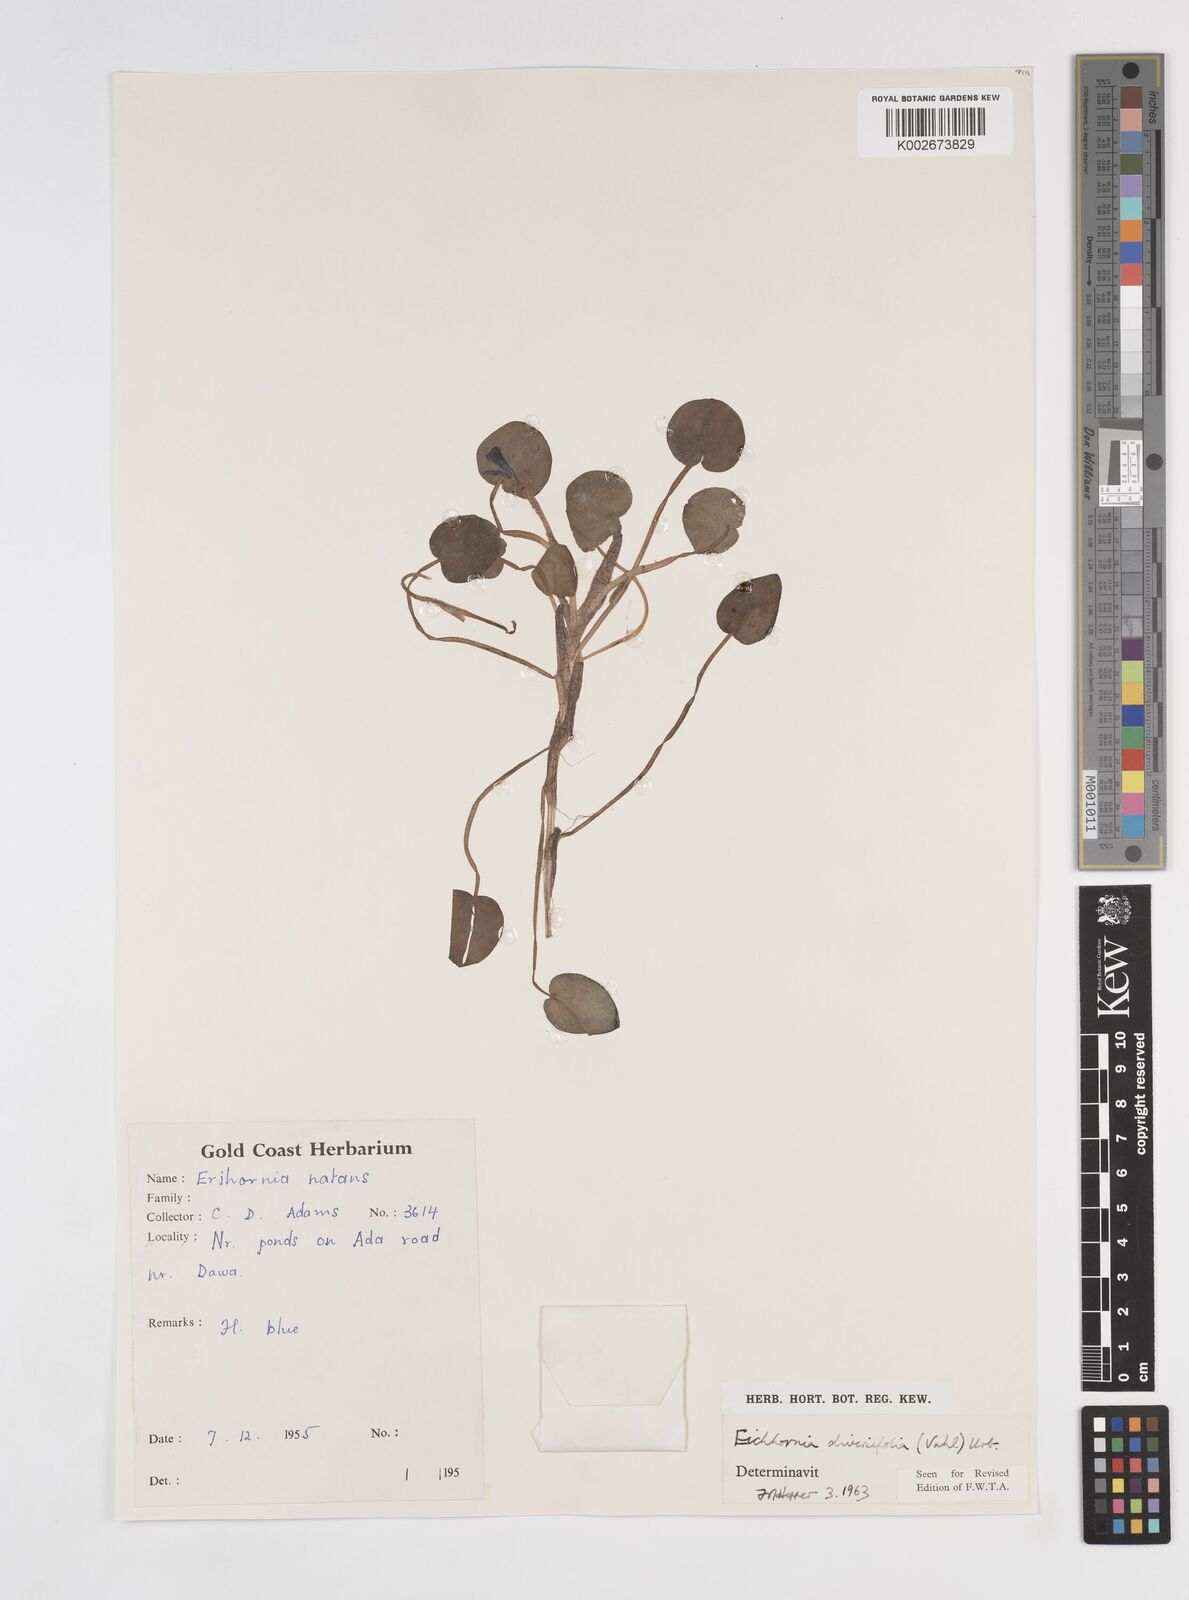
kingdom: Plantae
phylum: Tracheophyta
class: Liliopsida
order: Commelinales
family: Pontederiaceae
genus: Pontederia
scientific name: Pontederia diversifolia
